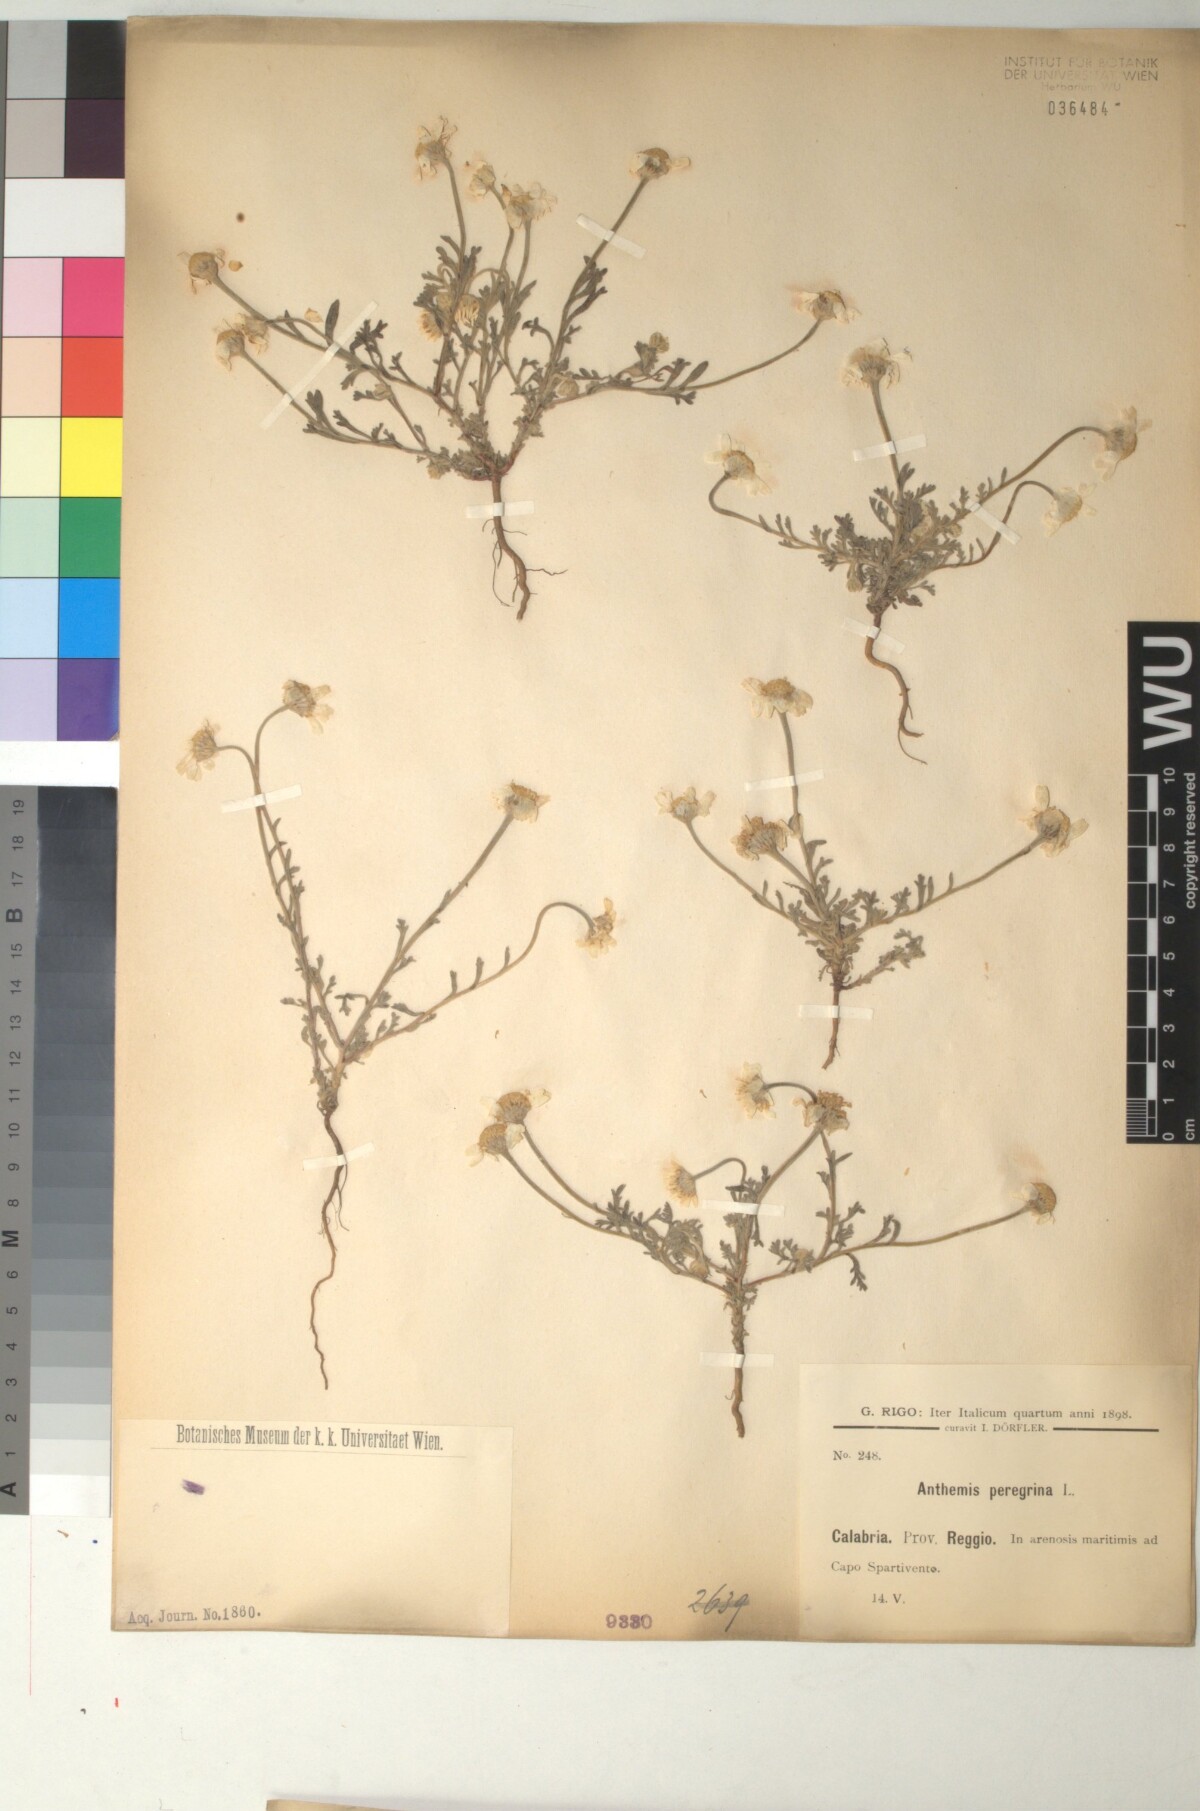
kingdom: Plantae
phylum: Tracheophyta
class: Magnoliopsida
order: Asterales
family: Asteraceae
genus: Anthemis
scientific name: Anthemis tomentosa
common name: Woolly chamomile
